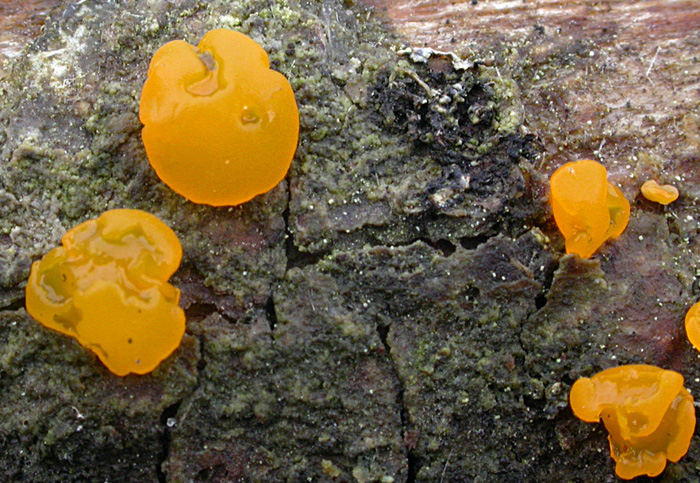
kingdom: Fungi
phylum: Basidiomycota
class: Dacrymycetes
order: Dacrymycetales
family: Dacrymycetaceae
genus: Dacrymyces
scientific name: Dacrymyces chrysospermus
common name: Orange jelly spot
